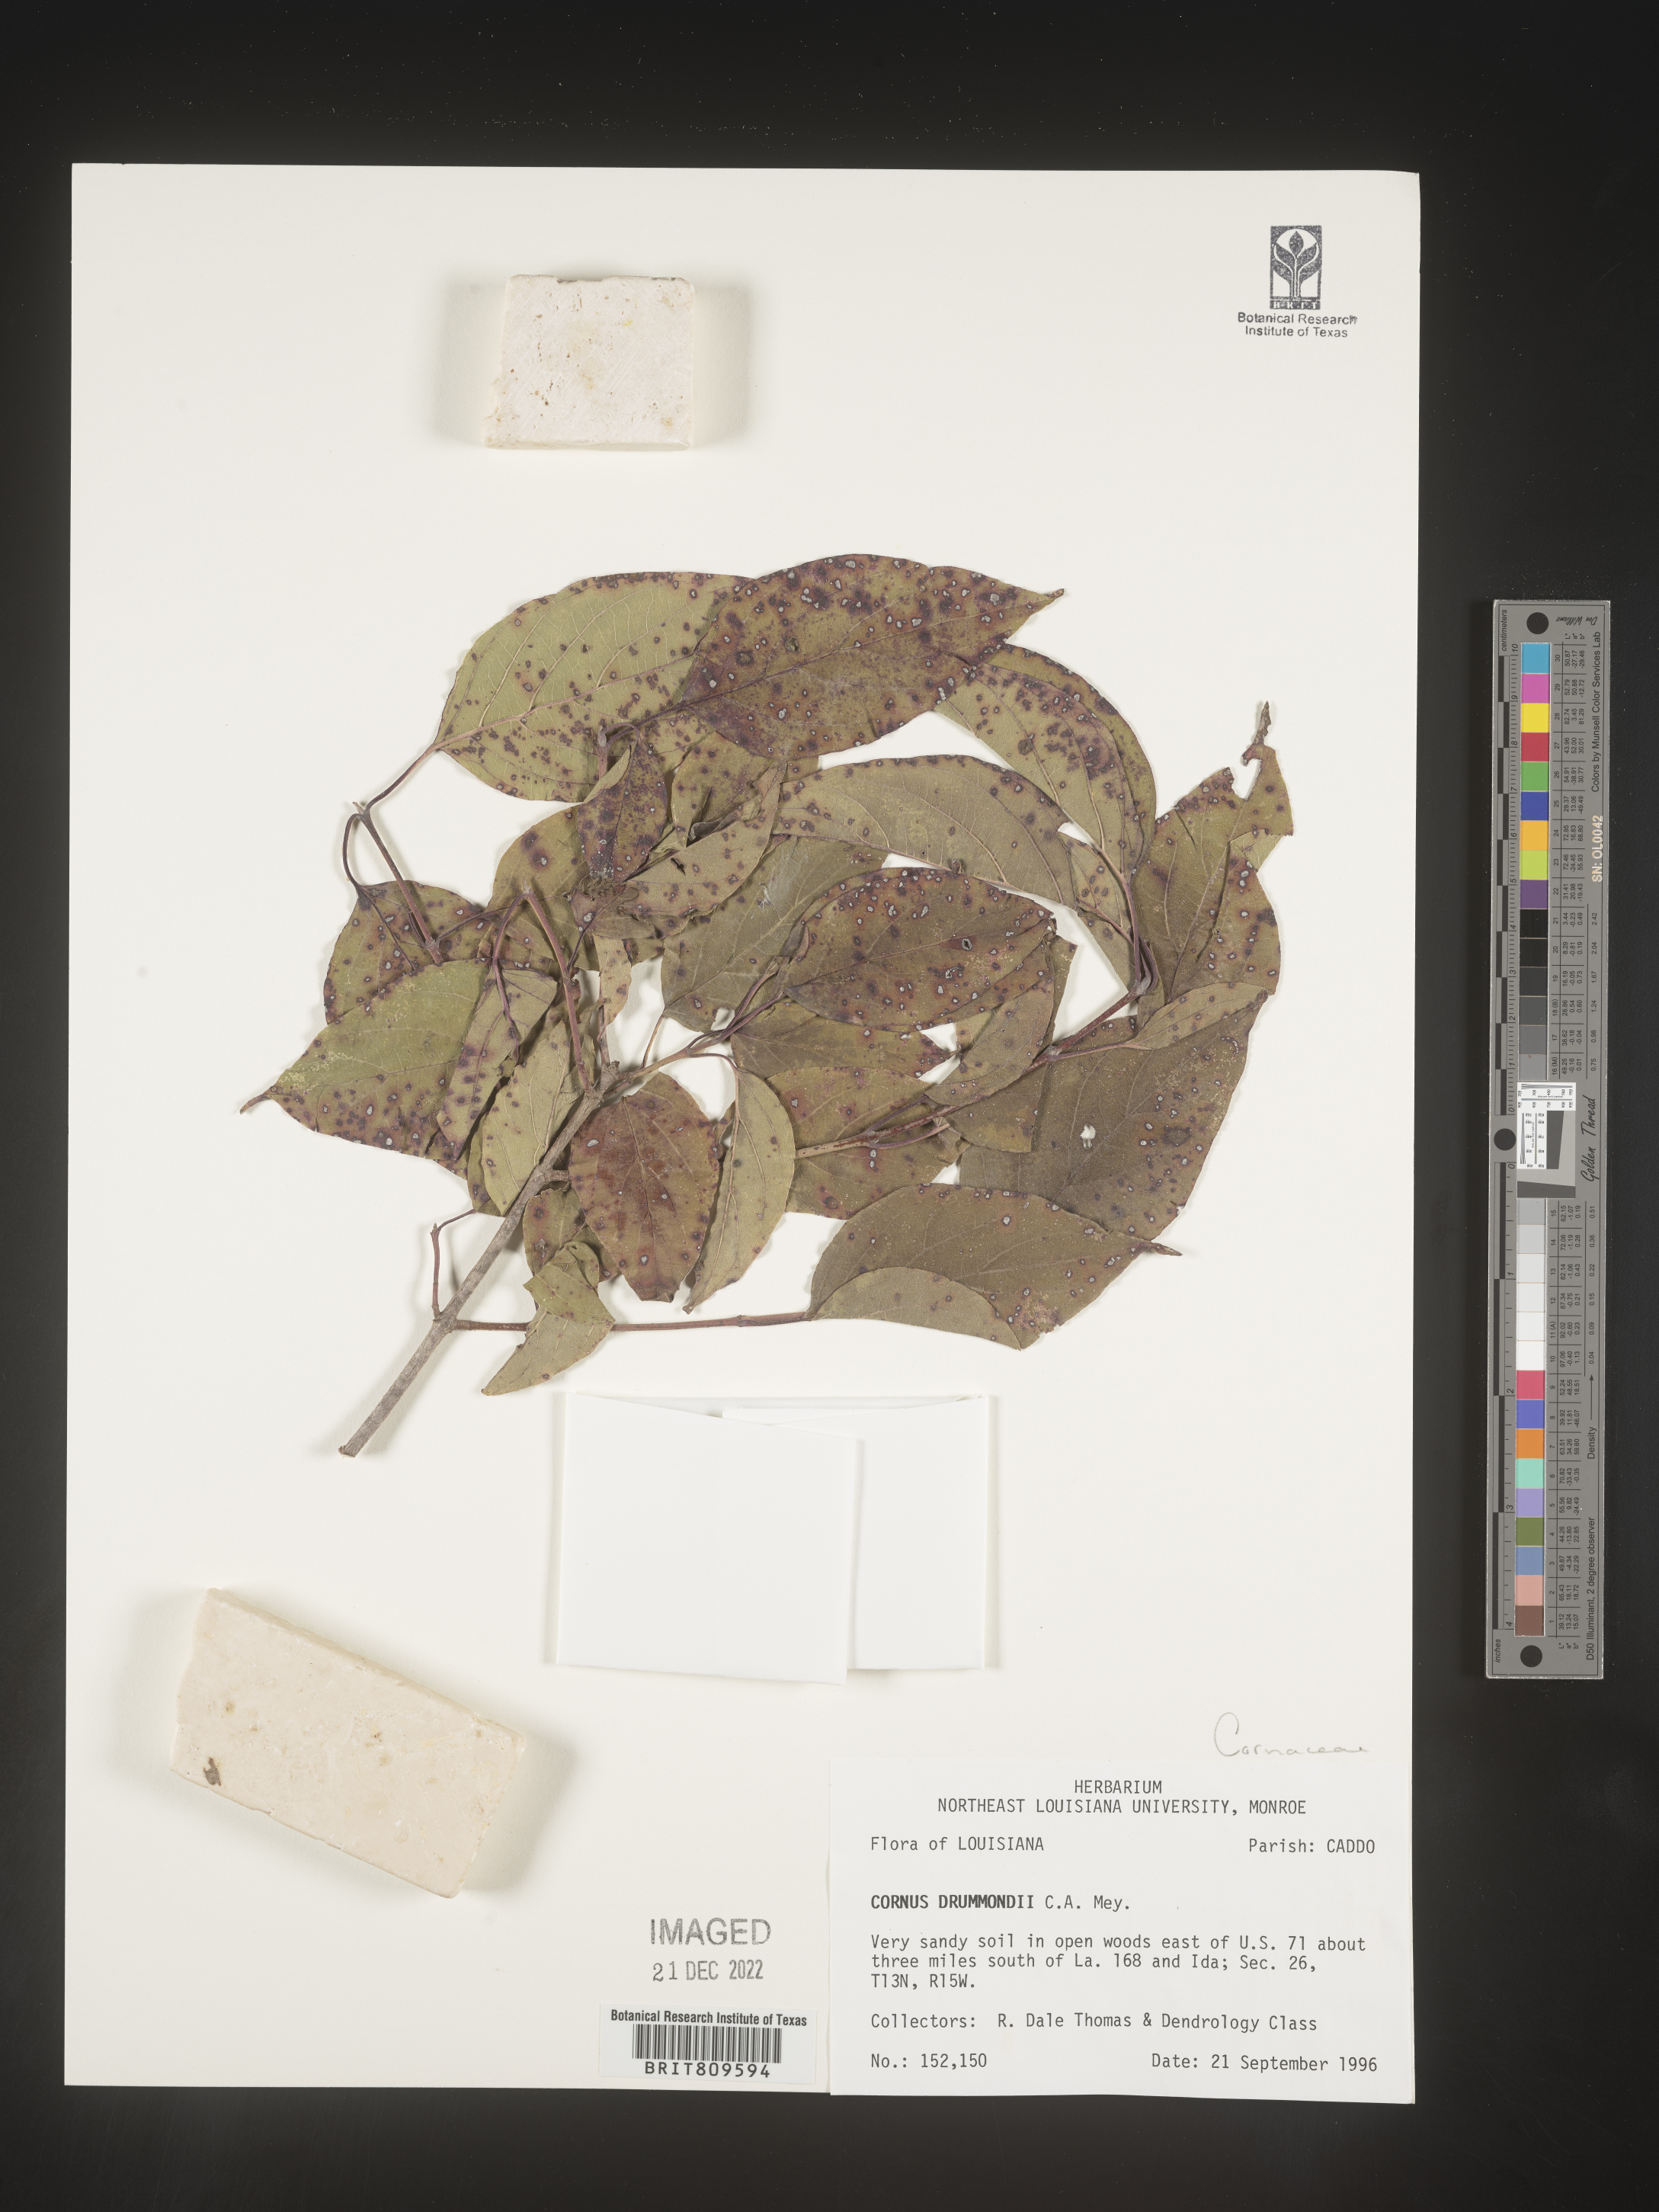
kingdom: Plantae
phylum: Tracheophyta
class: Magnoliopsida
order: Cornales
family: Cornaceae
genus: Cornus
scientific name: Cornus drummondii
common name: Rough-leaf dogwood
